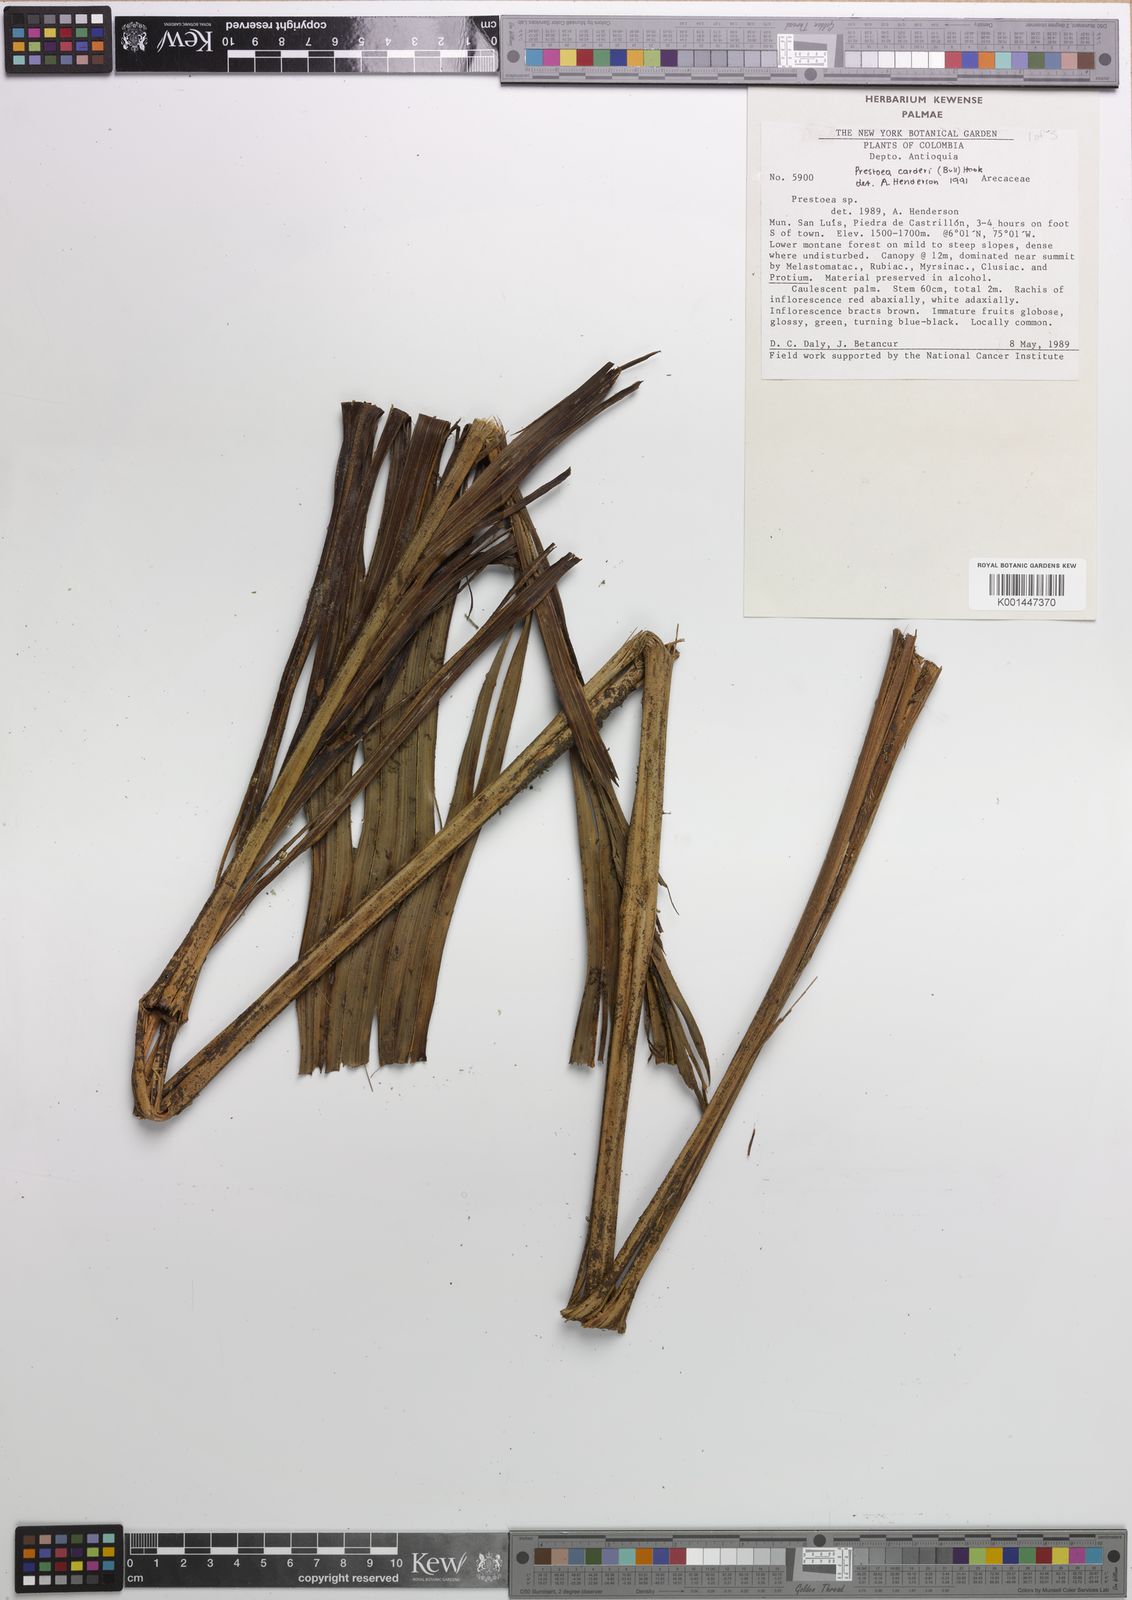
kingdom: Plantae
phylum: Tracheophyta
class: Liliopsida
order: Arecales
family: Arecaceae
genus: Prestoea
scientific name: Prestoea carderi
